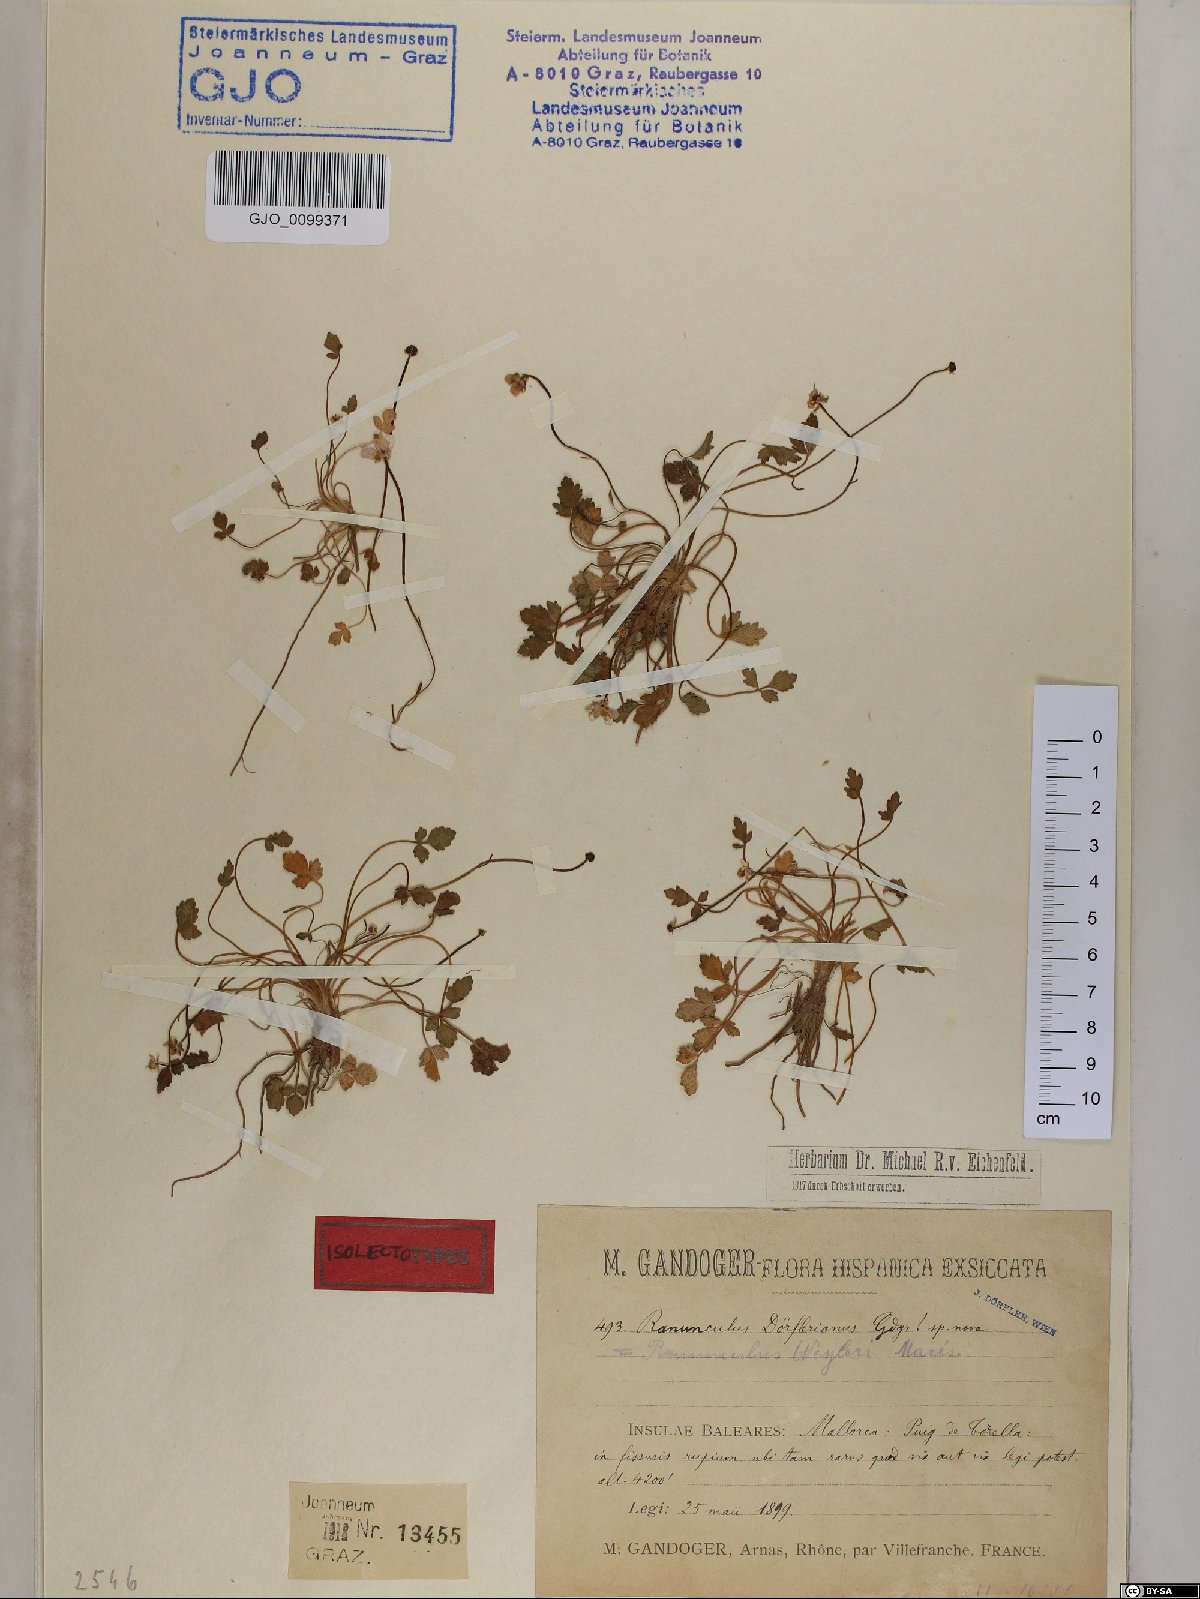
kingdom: Plantae
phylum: Tracheophyta
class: Magnoliopsida
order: Ranunculales
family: Ranunculaceae
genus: Ranunculus
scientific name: Ranunculus weyleri
